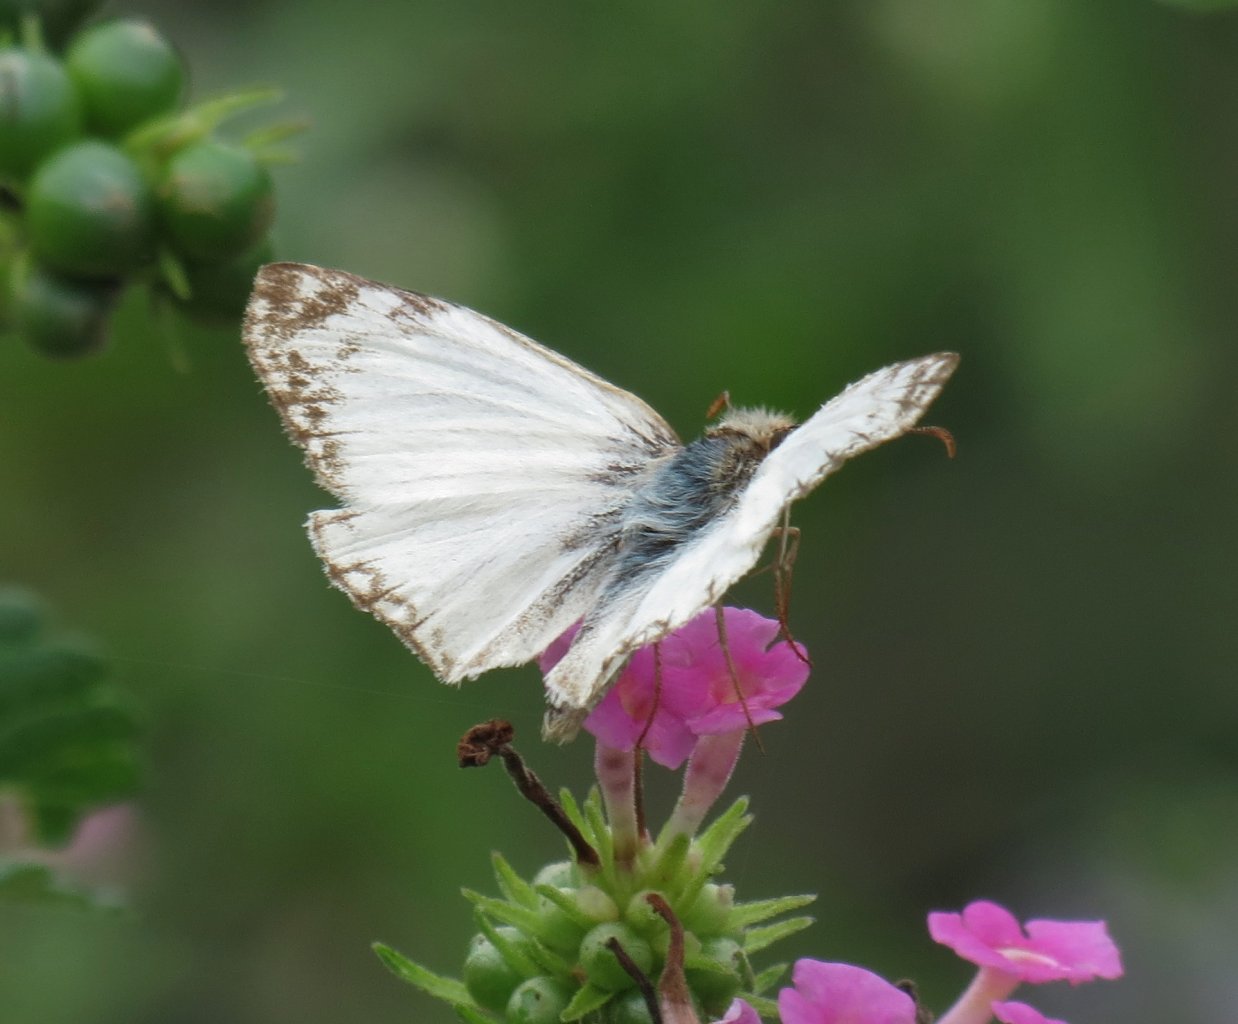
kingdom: Animalia
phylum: Arthropoda
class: Insecta
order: Lepidoptera
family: Hesperiidae
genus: Heliopetes
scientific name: Heliopetes laviana
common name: Laviana White-Skipper
